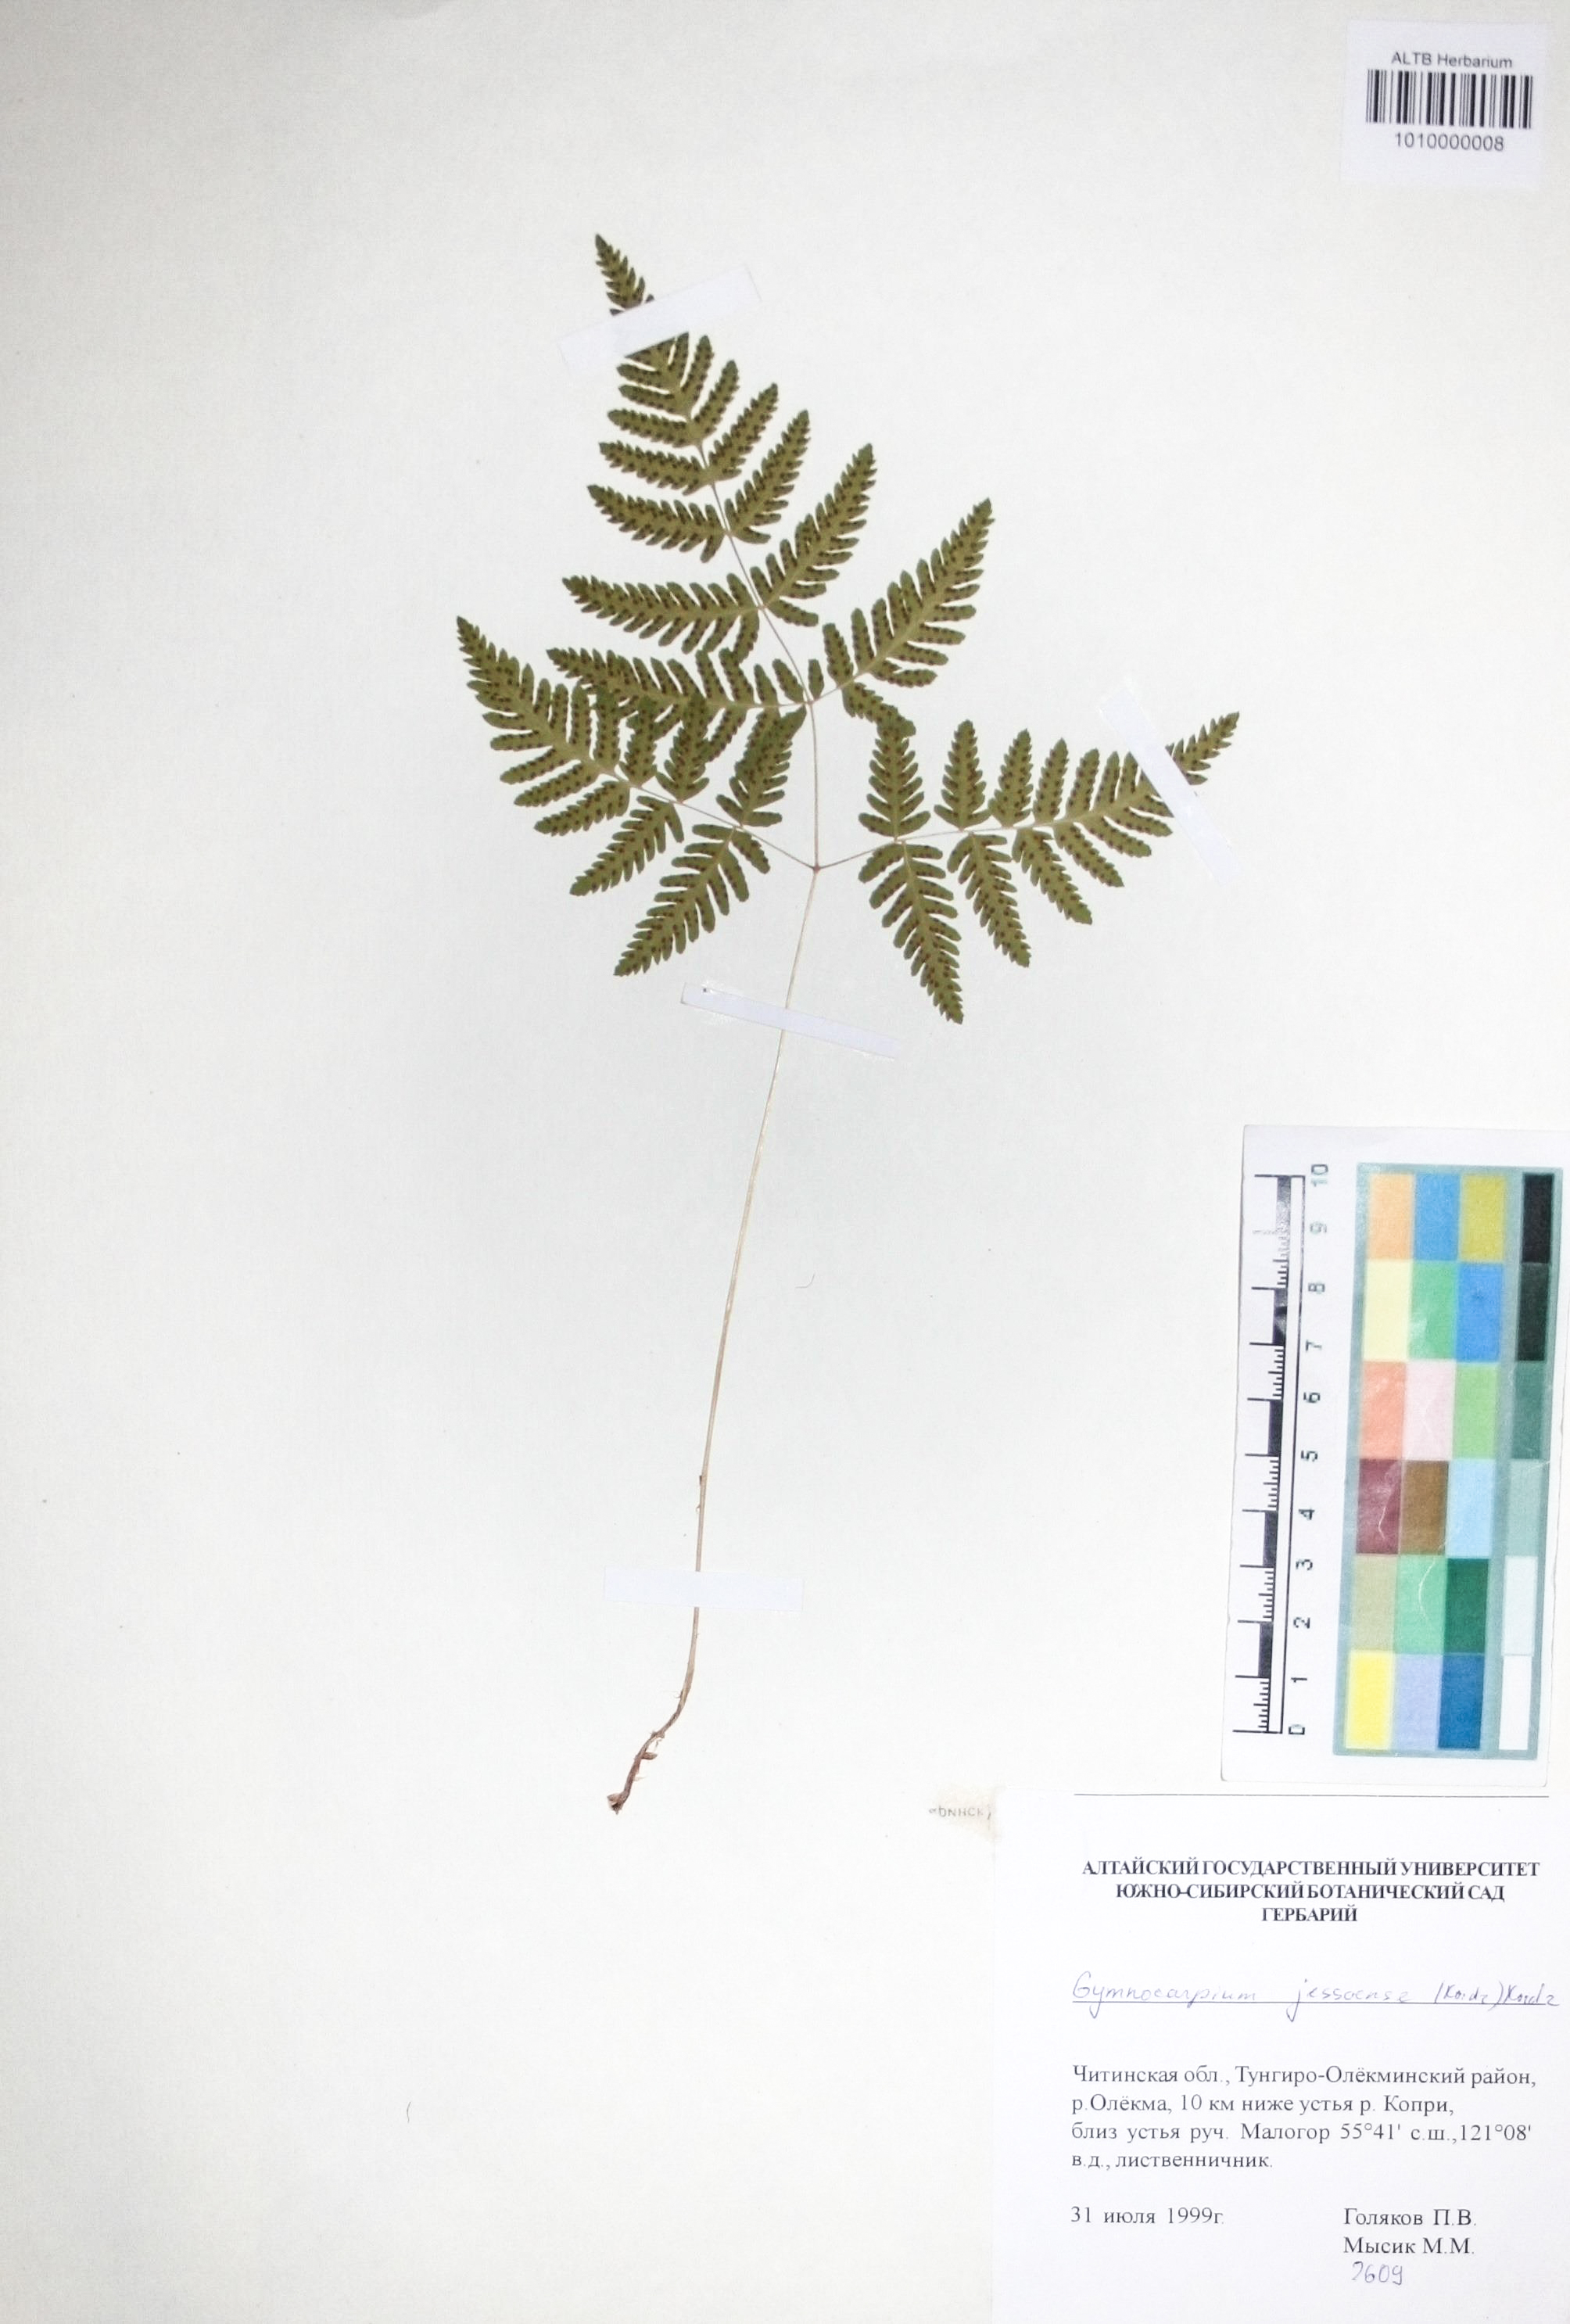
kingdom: Plantae
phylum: Tracheophyta
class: Polypodiopsida
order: Polypodiales
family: Cystopteridaceae
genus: Gymnocarpium
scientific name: Gymnocarpium jessoense
